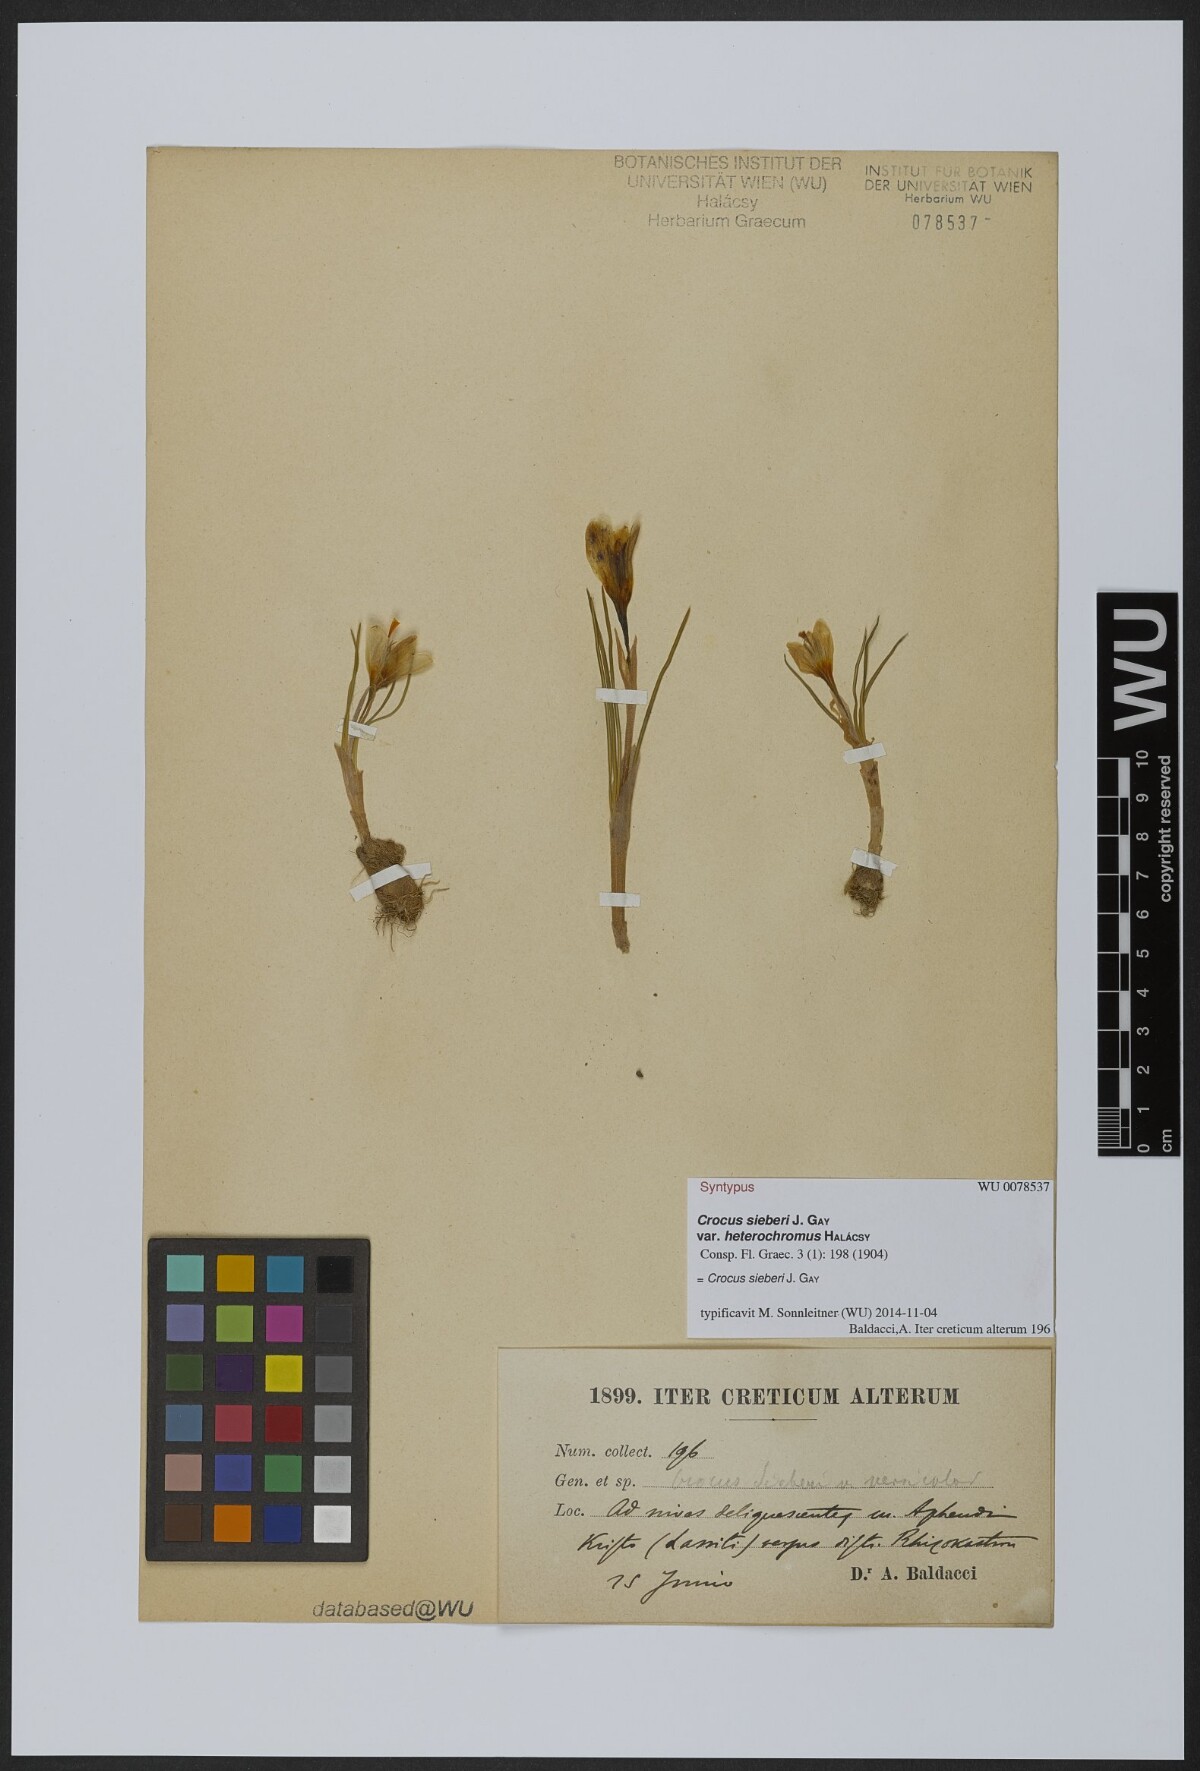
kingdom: Plantae
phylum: Tracheophyta
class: Liliopsida
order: Asparagales
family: Iridaceae
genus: Crocus
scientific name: Crocus sieberi
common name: Sieber's crocus
